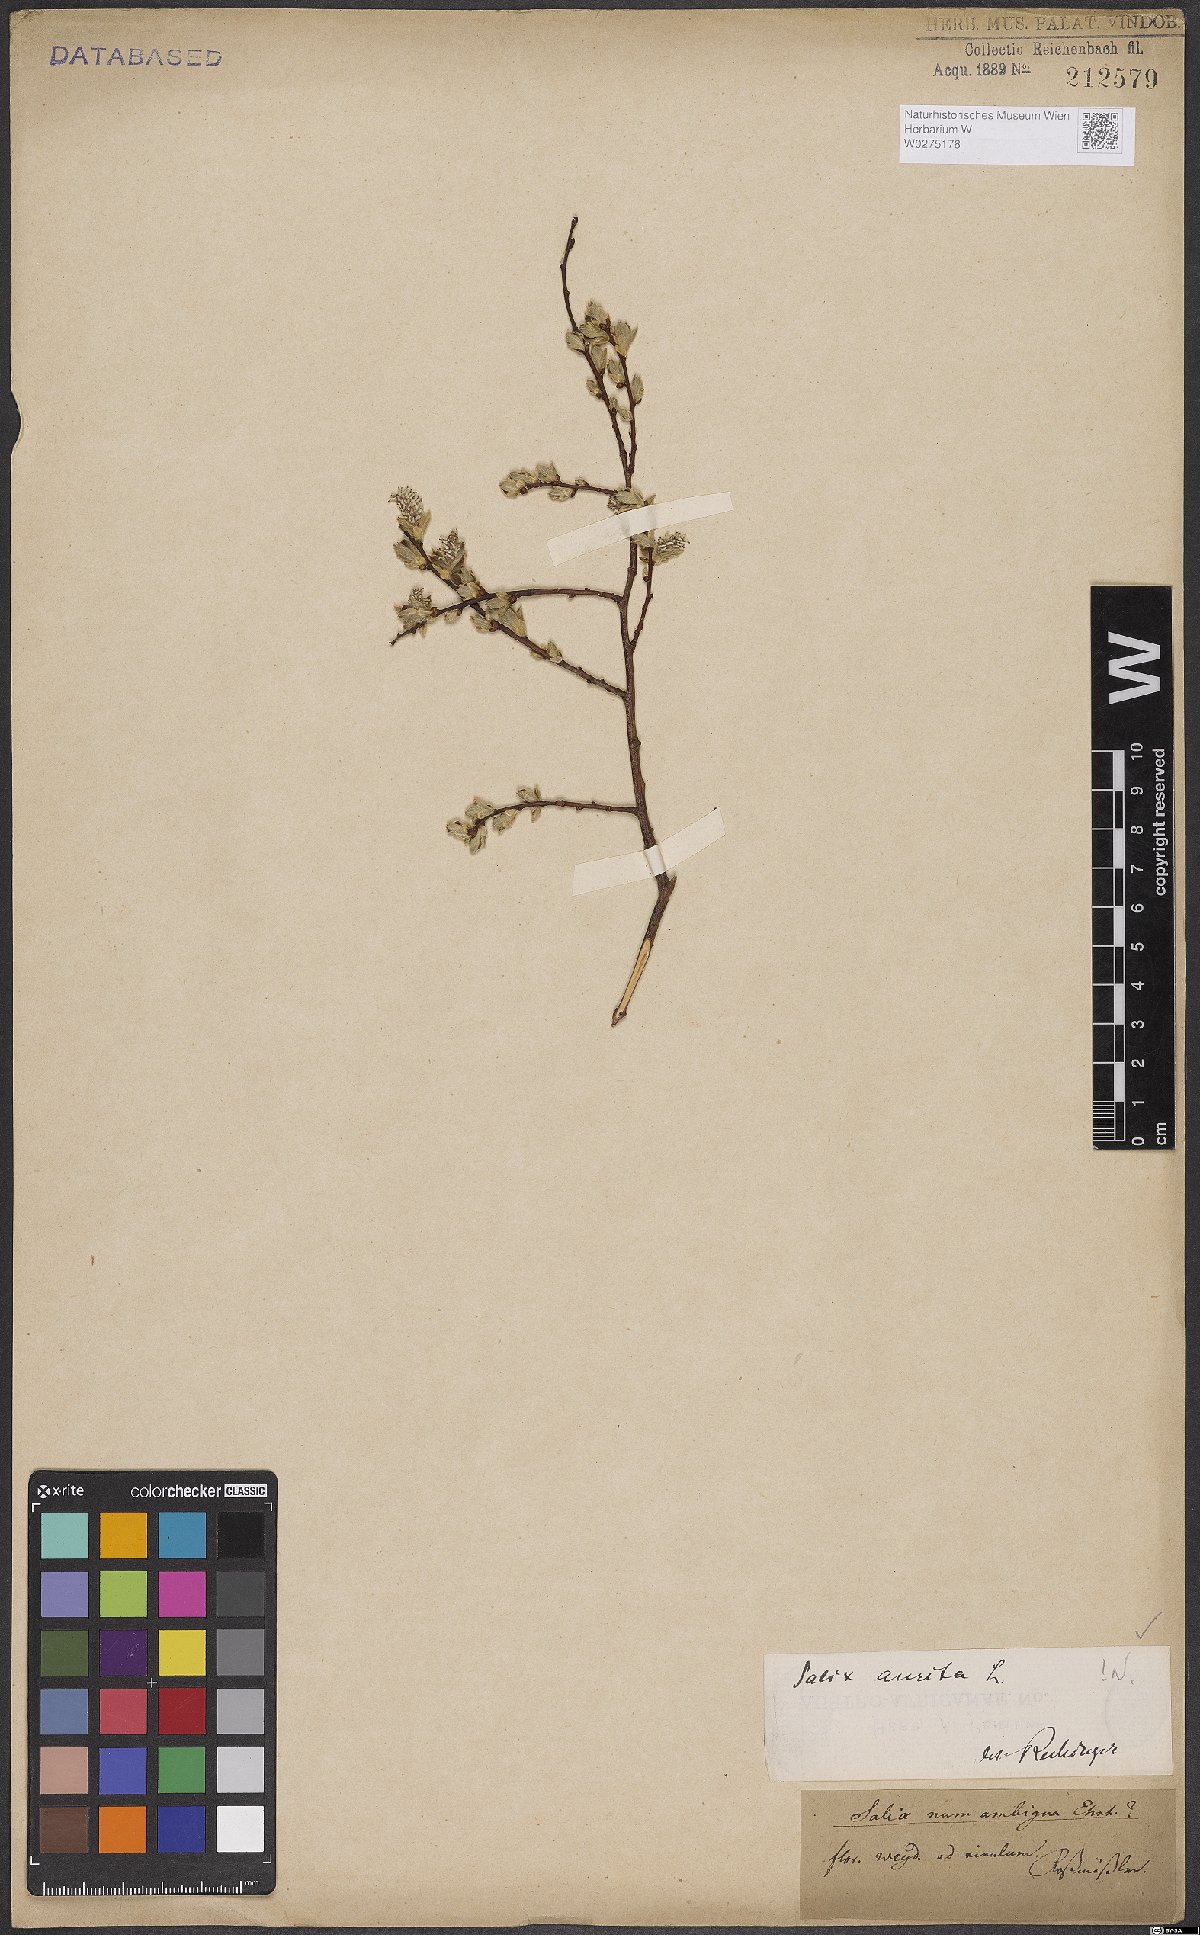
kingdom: Plantae
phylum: Tracheophyta
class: Magnoliopsida
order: Malpighiales
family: Salicaceae
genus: Salix
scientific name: Salix aurita
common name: Eared willow
